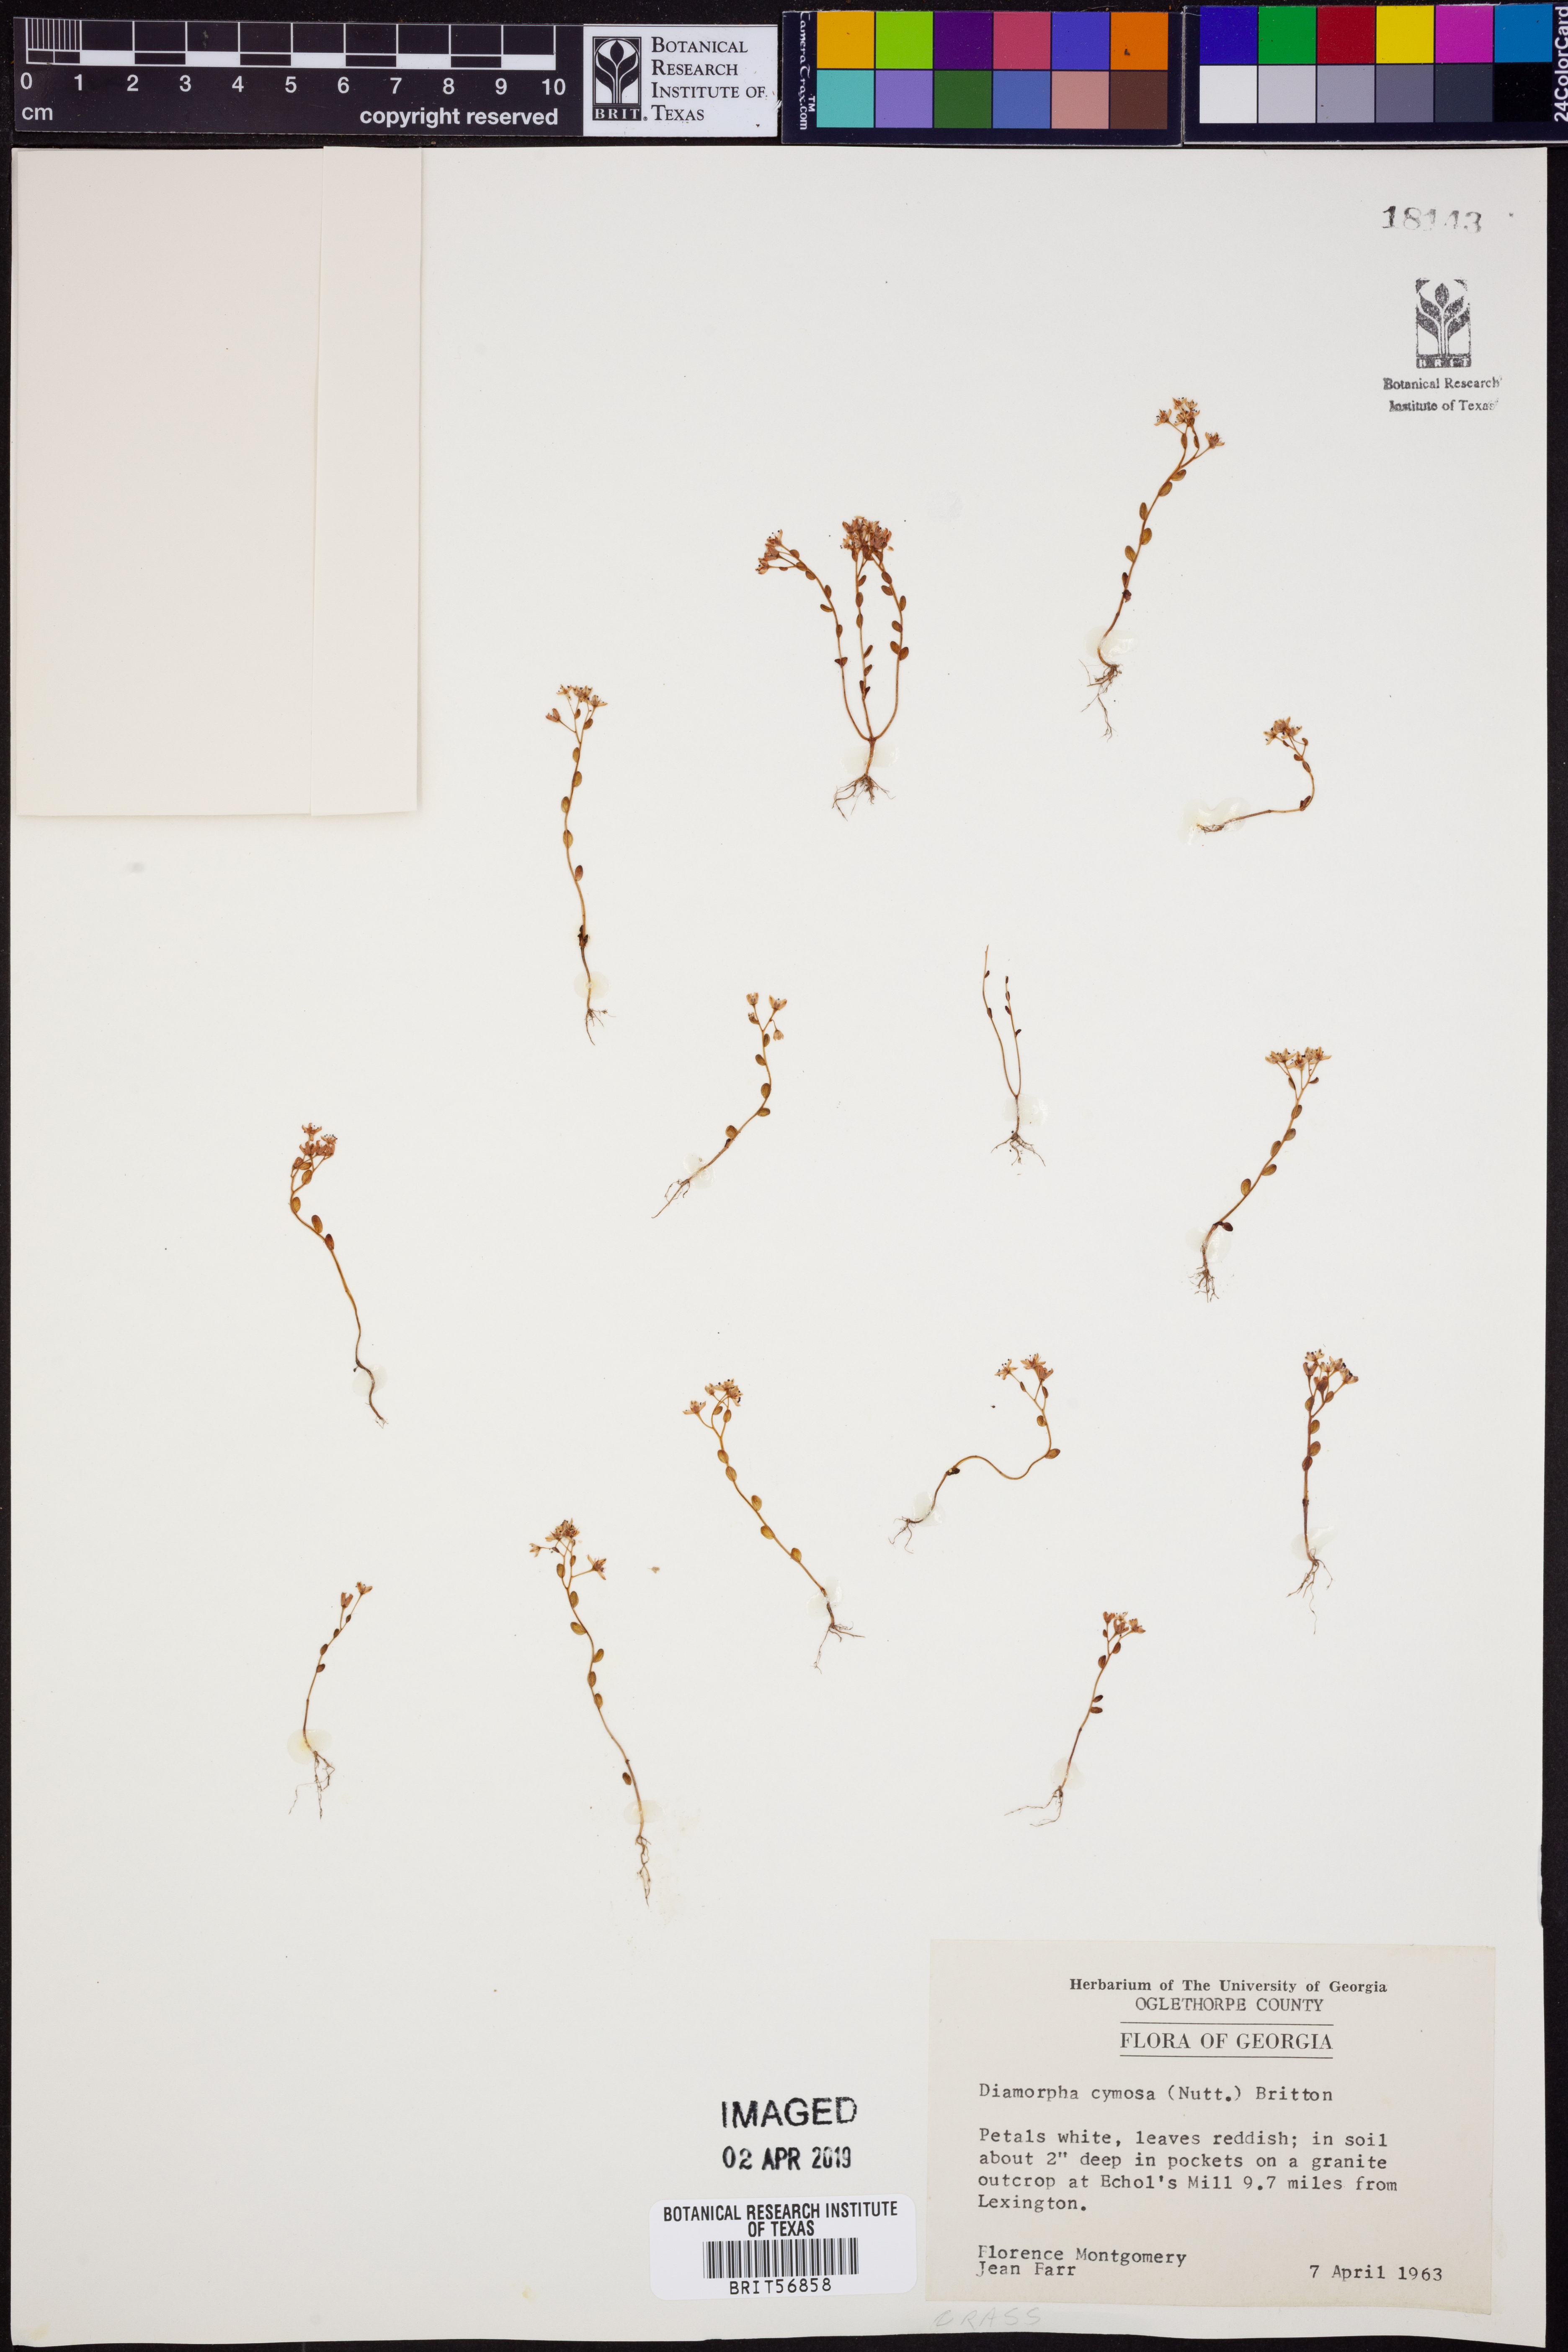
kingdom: Plantae
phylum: Tracheophyta
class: Magnoliopsida
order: Saxifragales
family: Crassulaceae
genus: Sedum
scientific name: Sedum smallii
